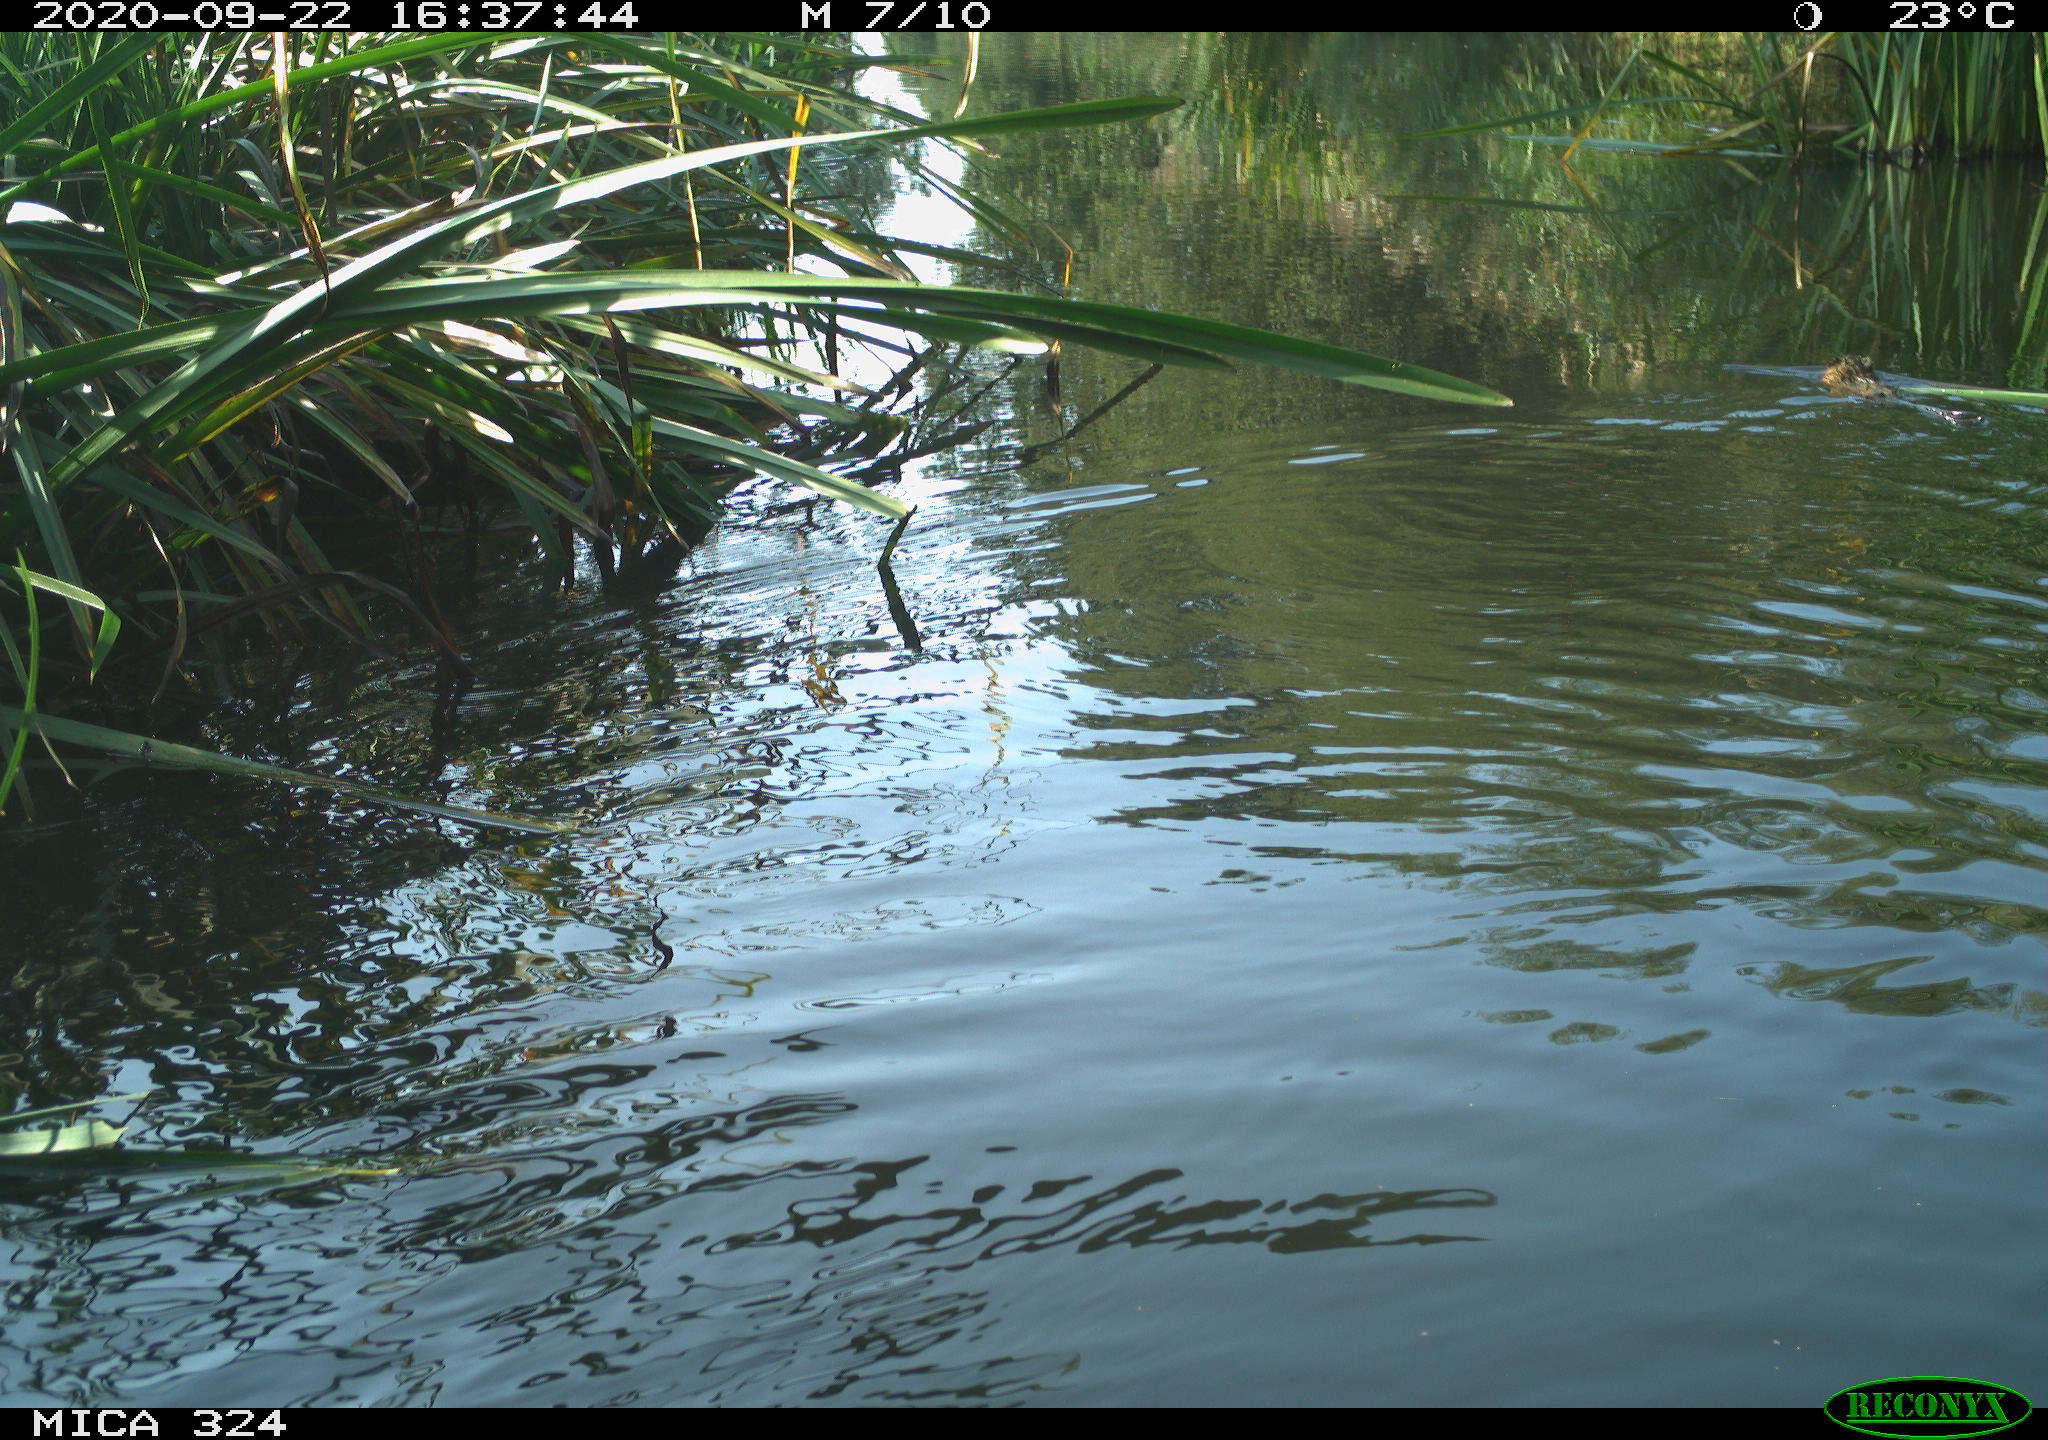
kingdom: Animalia
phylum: Chordata
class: Mammalia
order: Rodentia
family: Cricetidae
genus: Ondatra
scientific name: Ondatra zibethicus
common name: Muskrat
